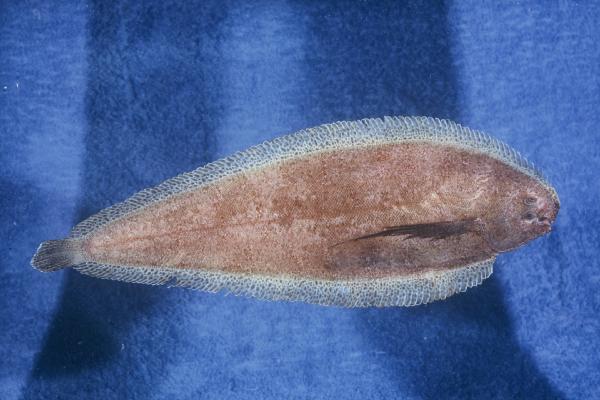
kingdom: Animalia
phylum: Chordata
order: Pleuronectiformes
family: Soleidae
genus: Austroglossus
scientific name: Austroglossus pectoralis
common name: East coast sole
